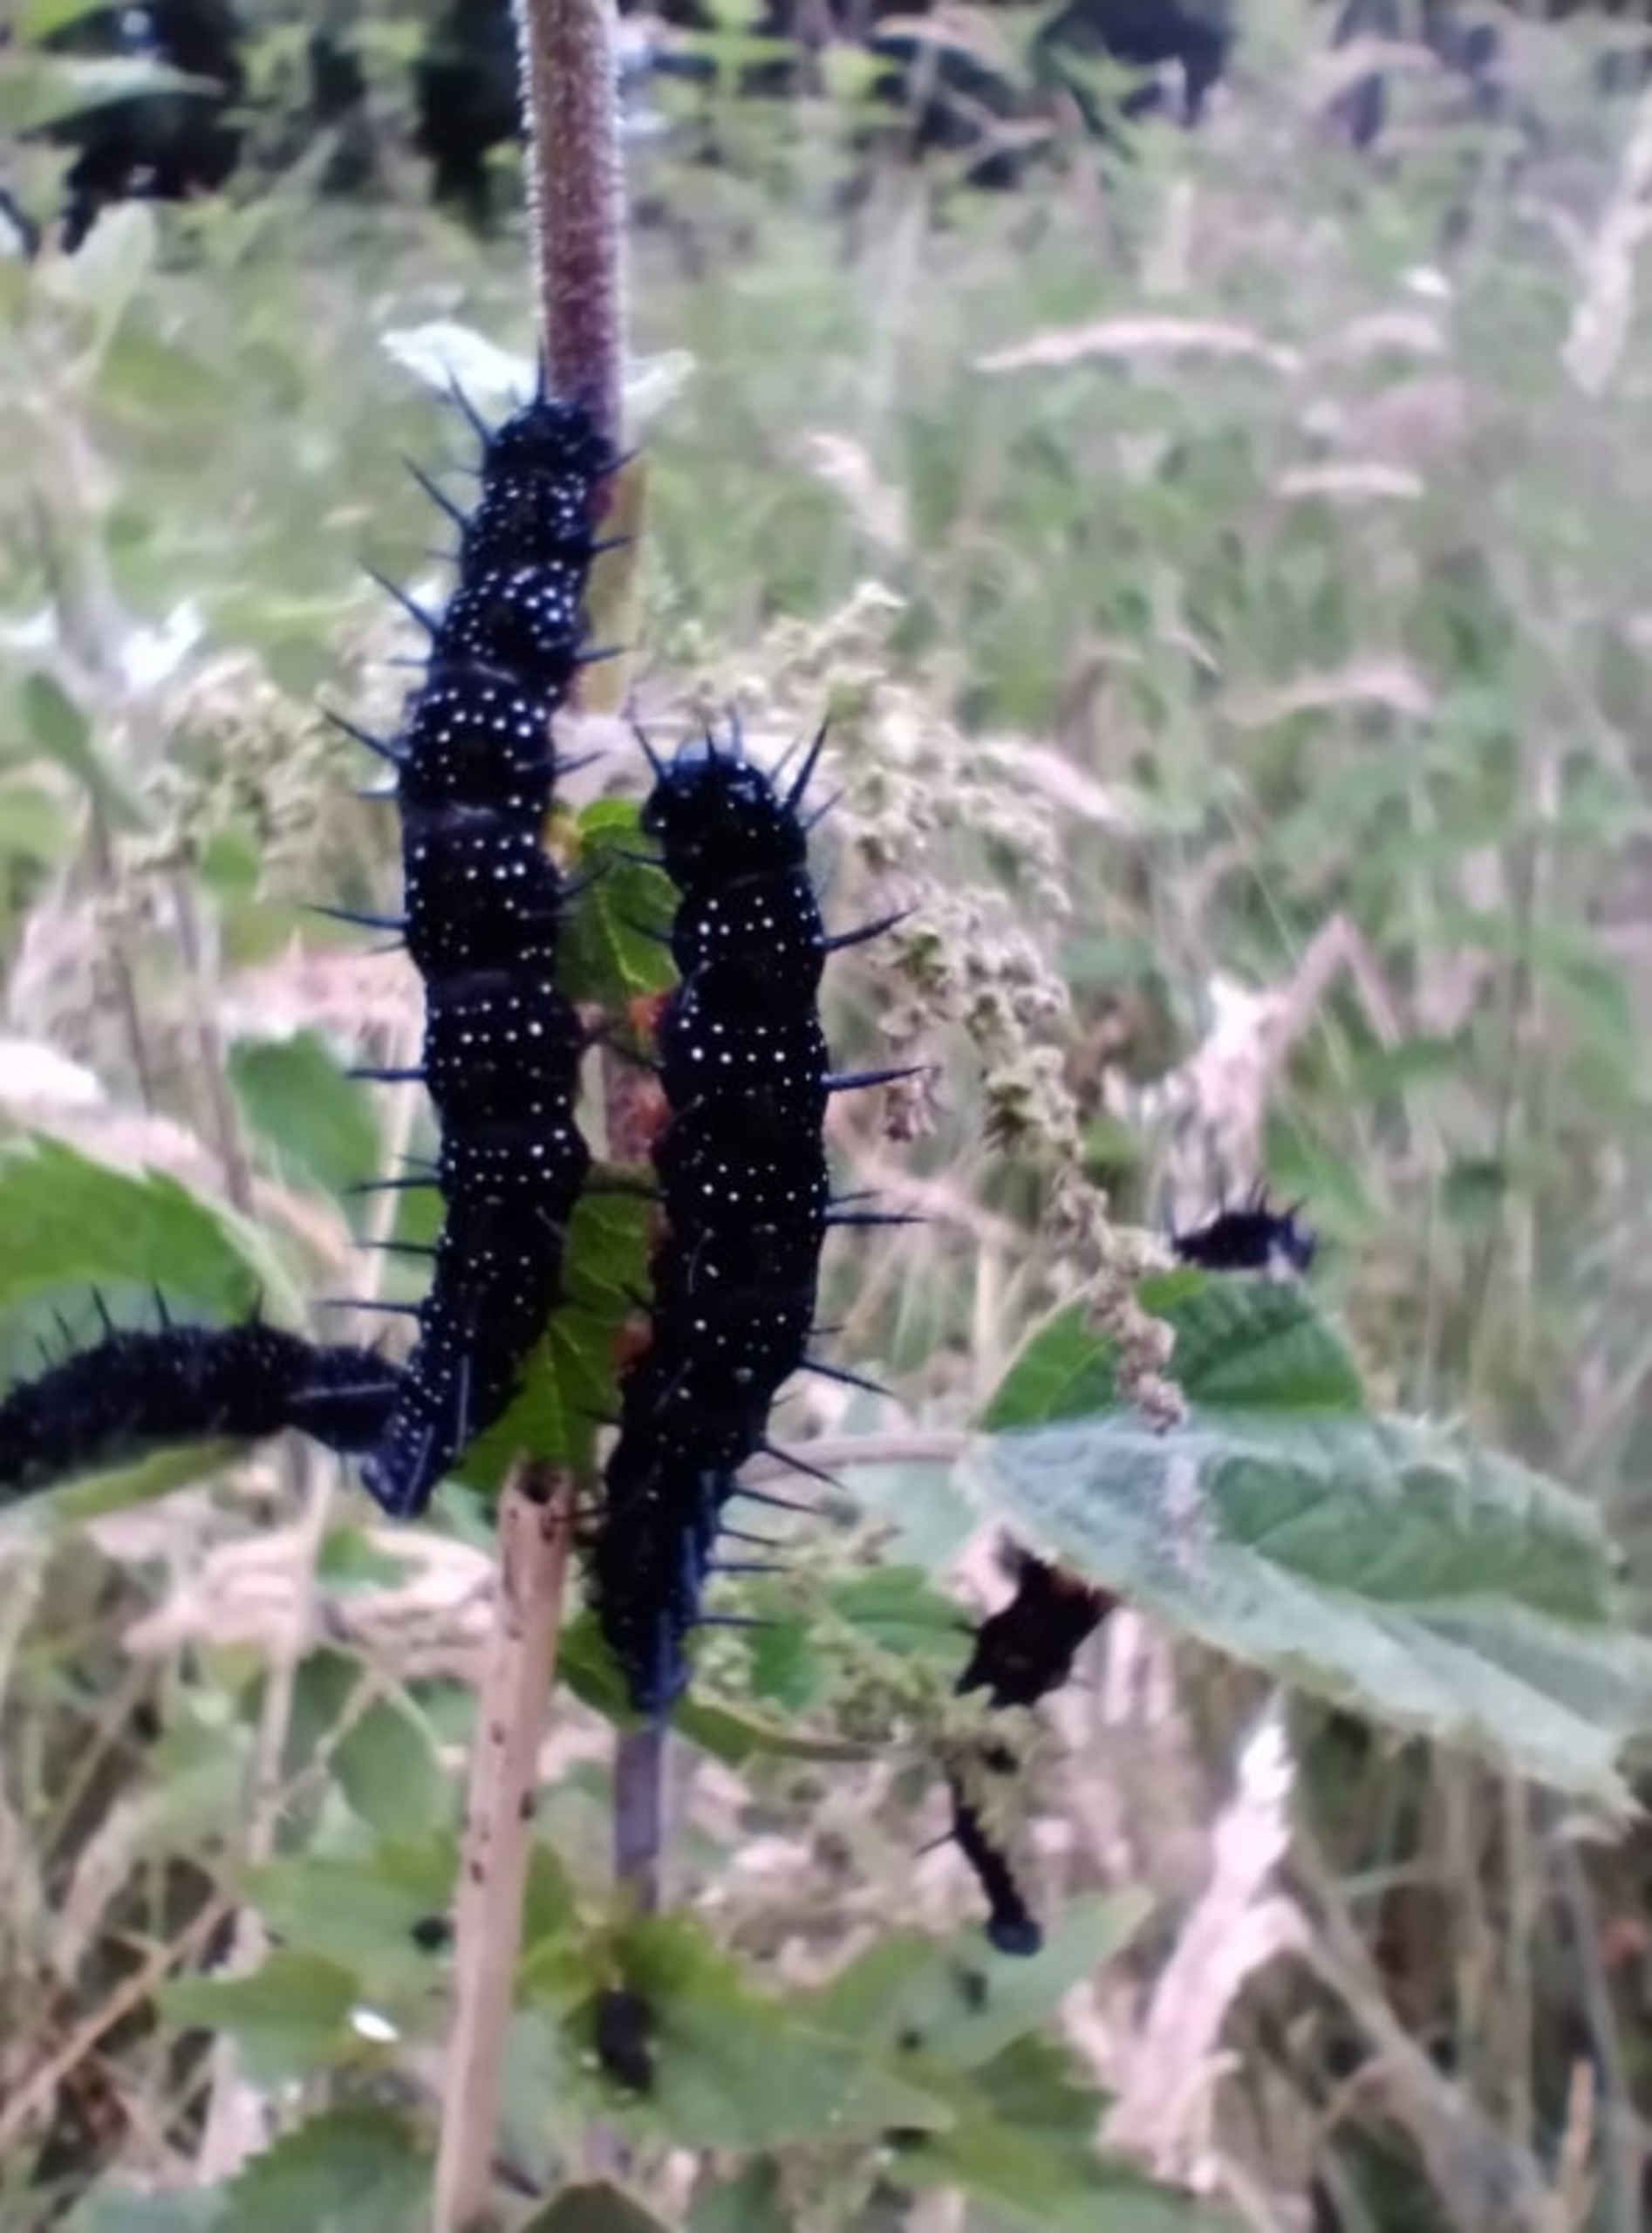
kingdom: Animalia
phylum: Arthropoda
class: Insecta
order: Lepidoptera
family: Nymphalidae
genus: Aglais
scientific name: Aglais io
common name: Dagpåfugleøje
